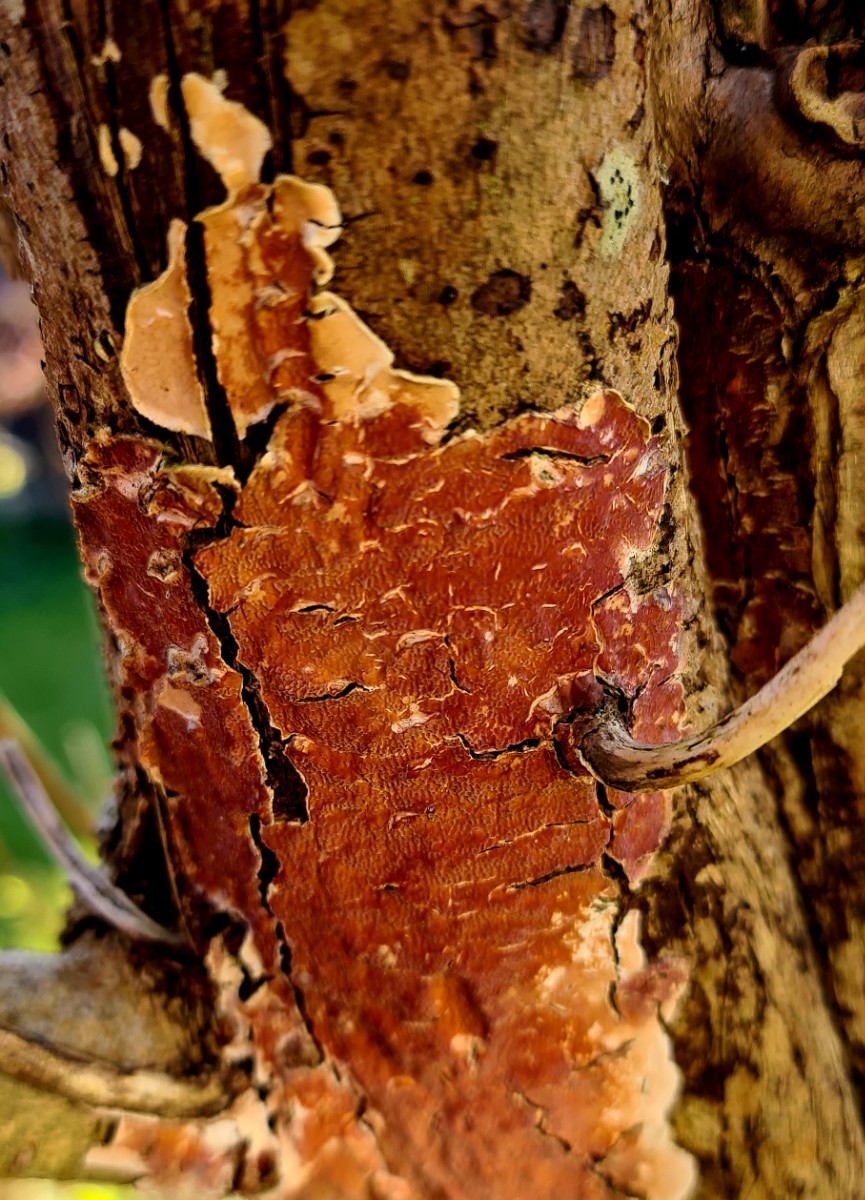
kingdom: Fungi
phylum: Basidiomycota
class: Agaricomycetes
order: Polyporales
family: Irpicaceae
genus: Byssomerulius
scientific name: Byssomerulius corium
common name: læder-åresvamp
